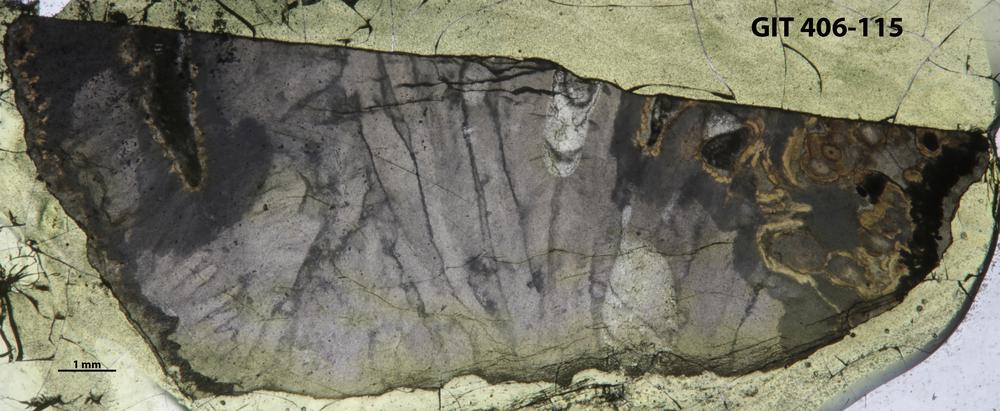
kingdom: Animalia
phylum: Cnidaria
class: Anthozoa
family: Streptelasmatidae
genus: Grewingkia
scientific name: Grewingkia
